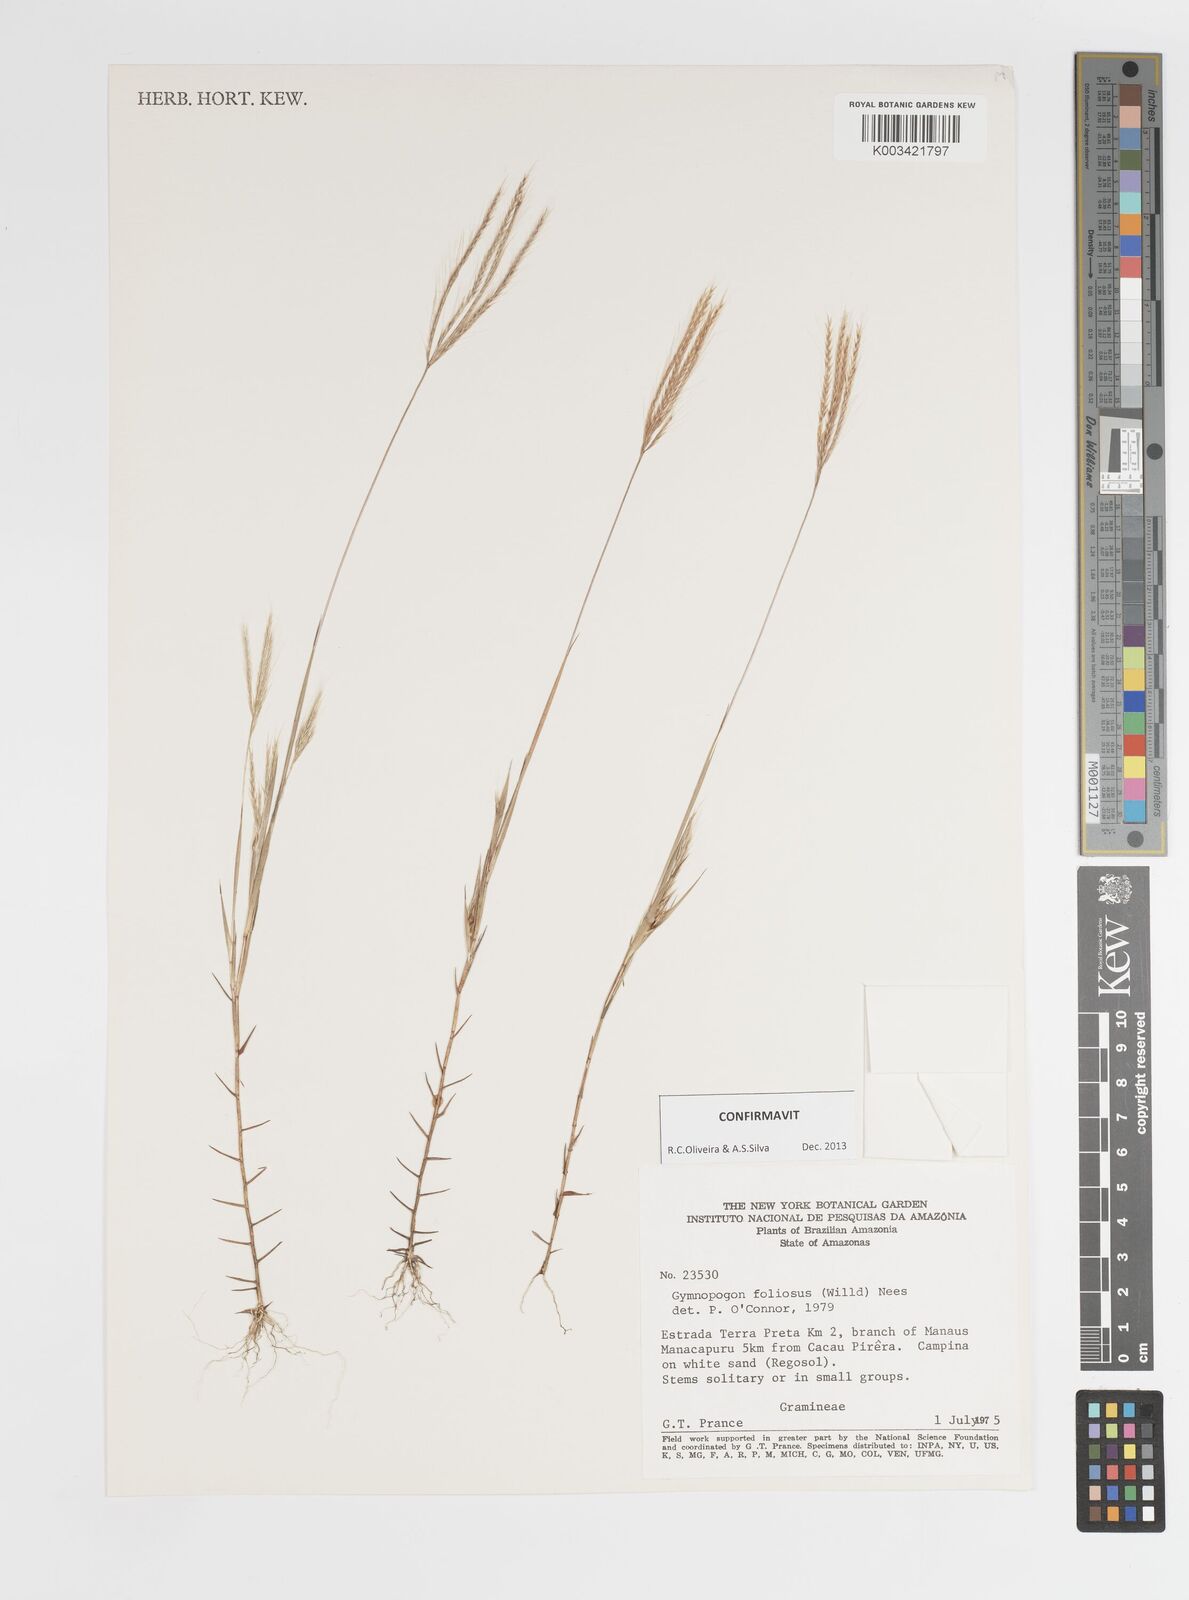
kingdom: Plantae
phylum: Tracheophyta
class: Liliopsida
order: Poales
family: Poaceae
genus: Gymnopogon
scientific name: Gymnopogon foliosus
